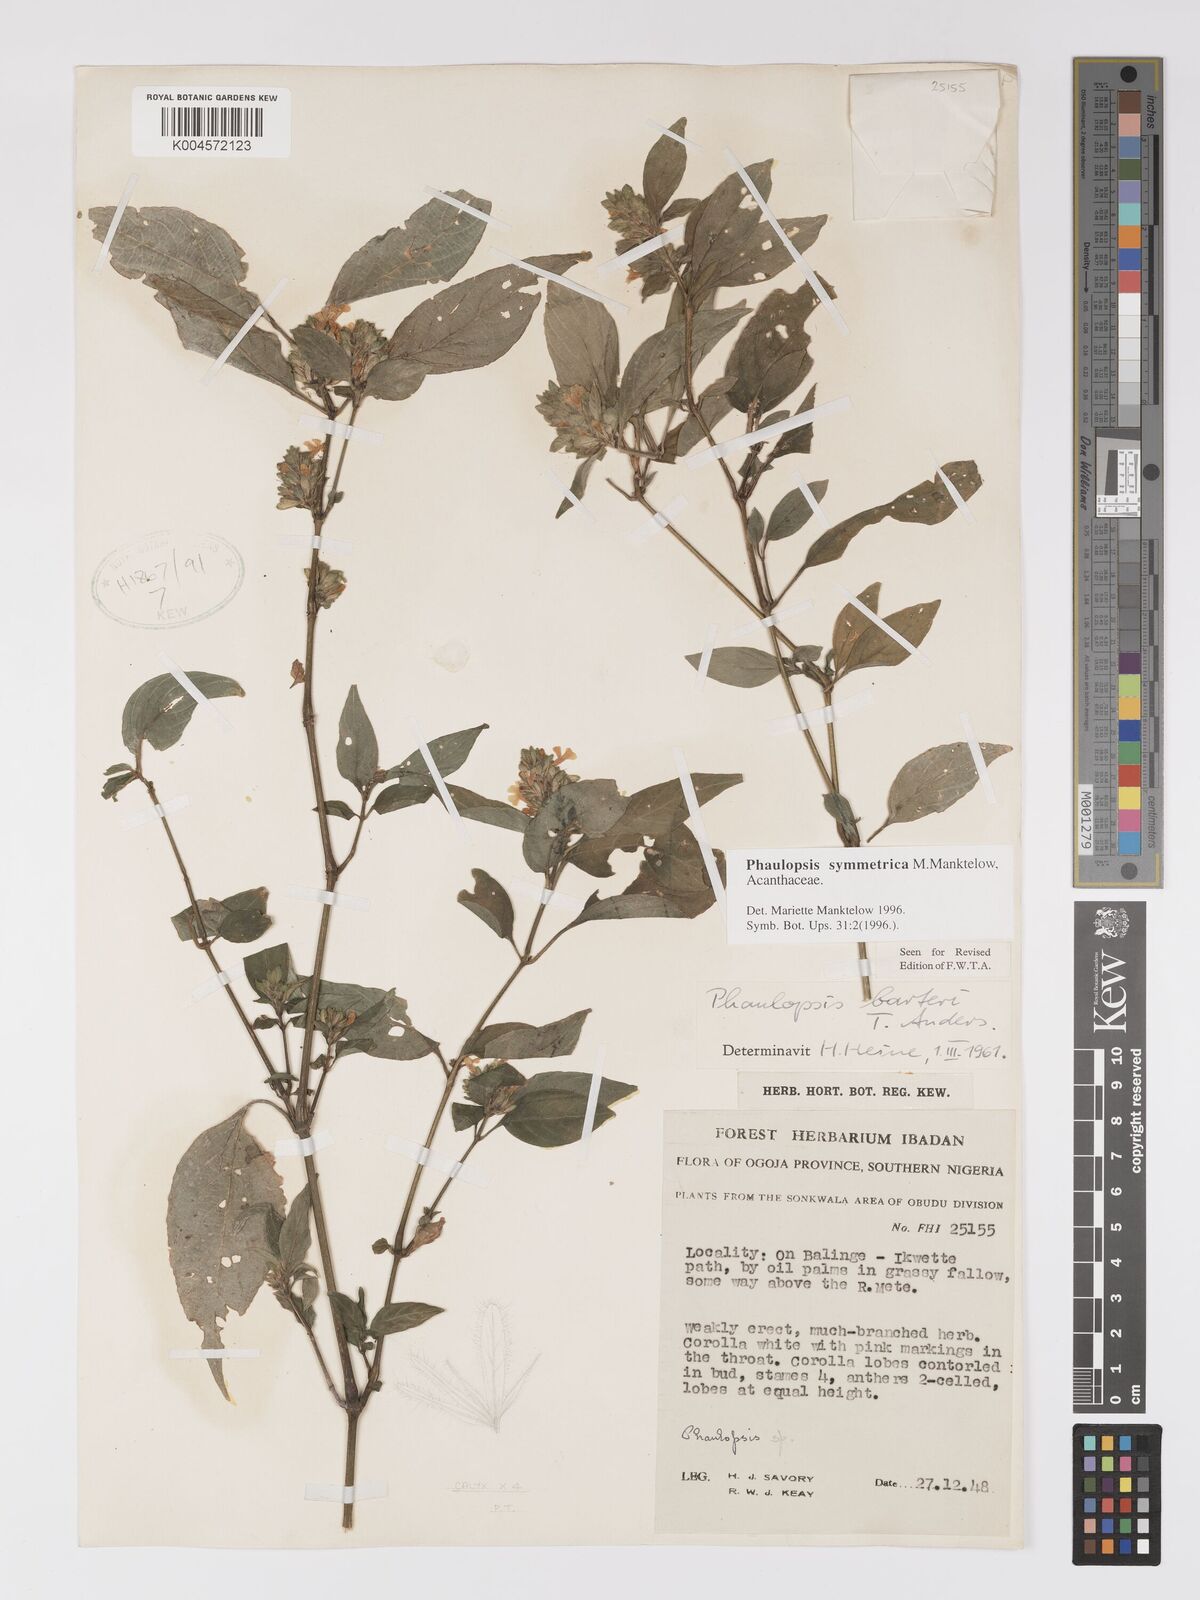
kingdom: Plantae
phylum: Tracheophyta
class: Magnoliopsida
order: Lamiales
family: Acanthaceae
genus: Phaulopsis
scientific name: Phaulopsis symmetrica
